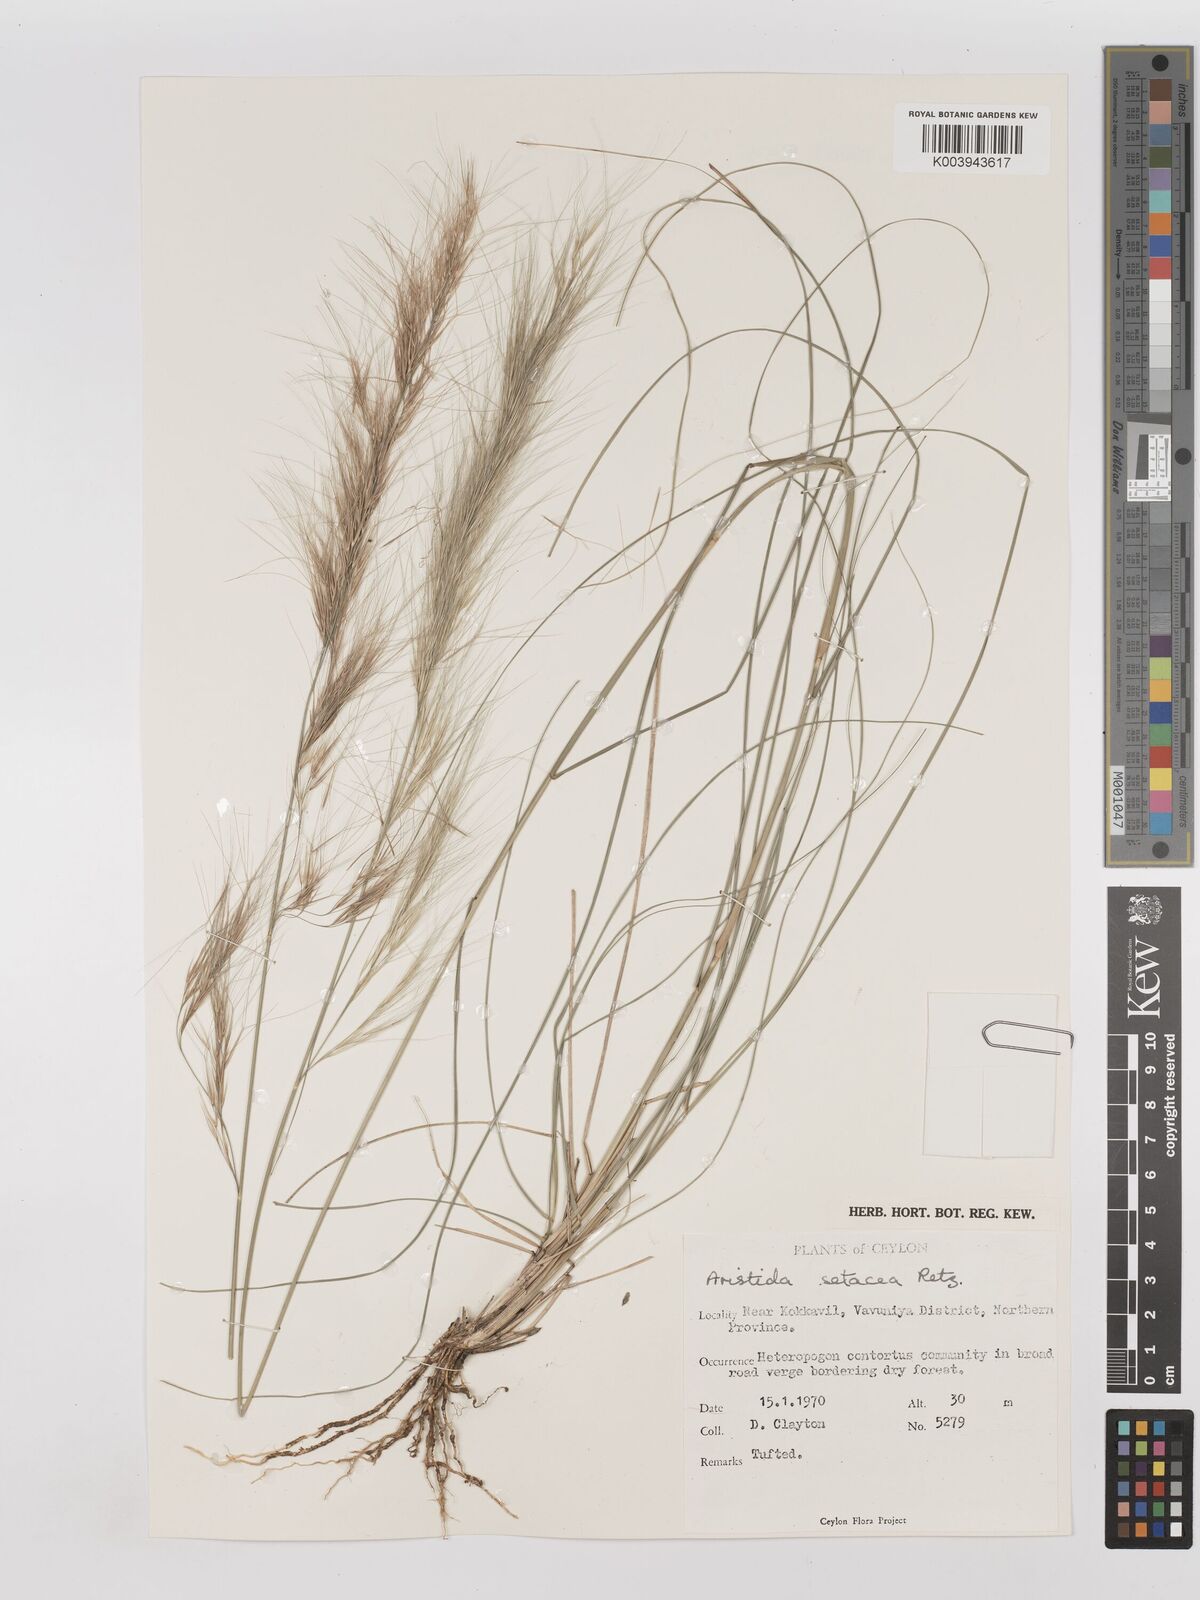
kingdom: Plantae
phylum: Tracheophyta
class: Liliopsida
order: Poales
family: Poaceae
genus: Aristida
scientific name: Aristida setacea
